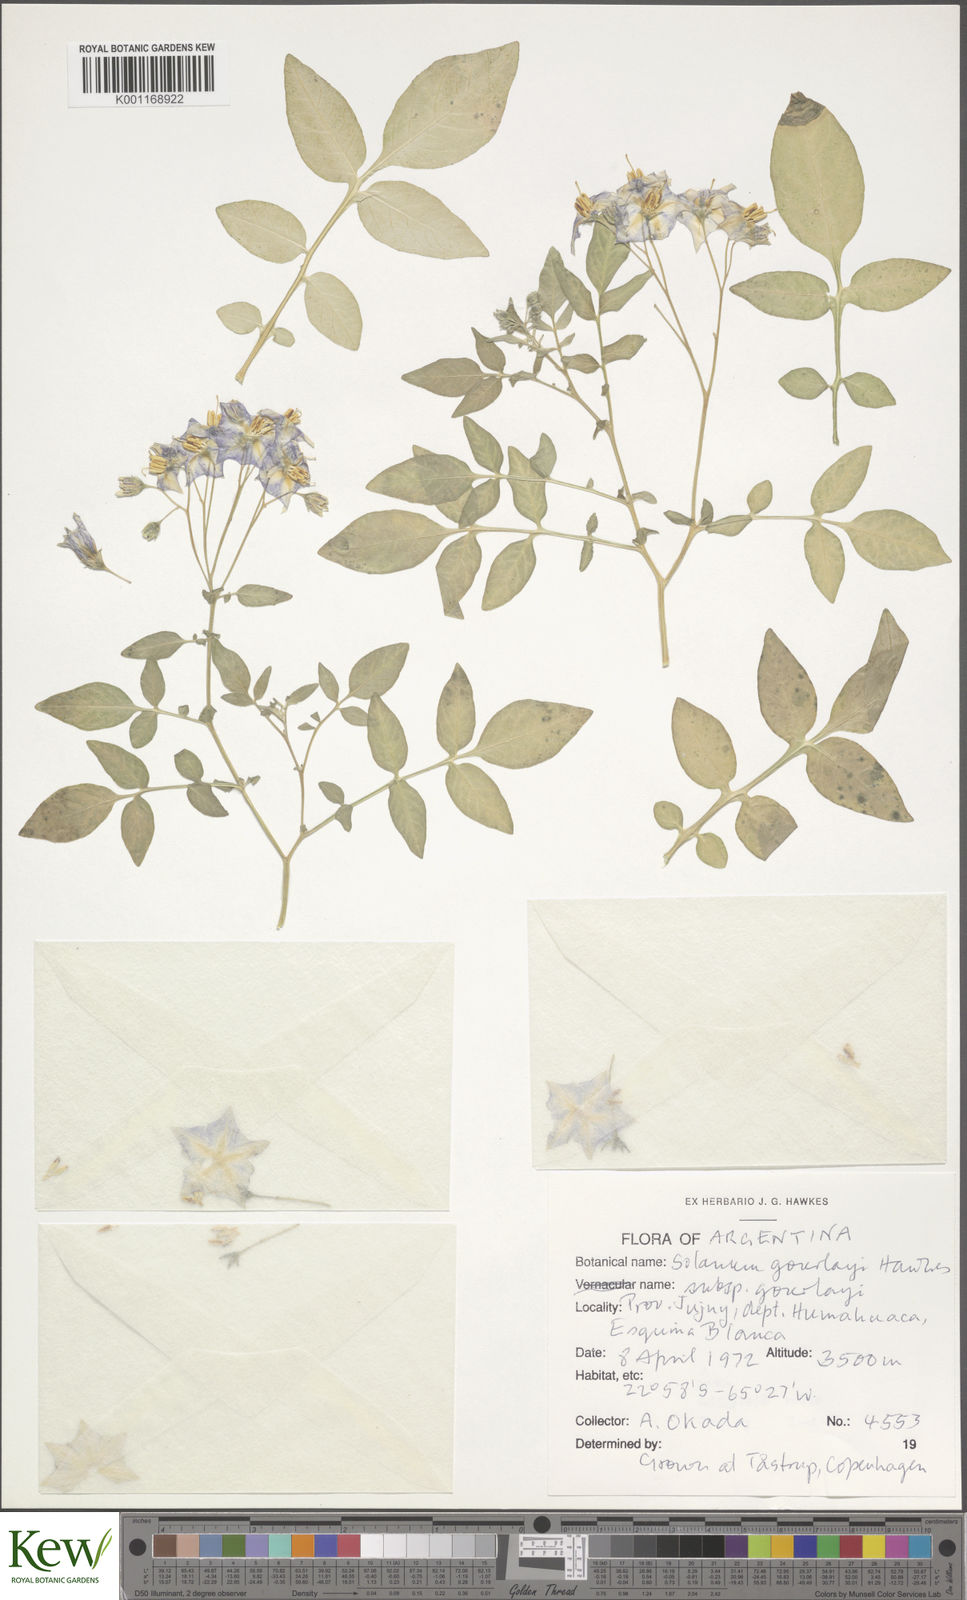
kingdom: Plantae
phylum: Tracheophyta
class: Magnoliopsida
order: Solanales
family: Solanaceae
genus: Solanum
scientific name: Solanum brevicaule
